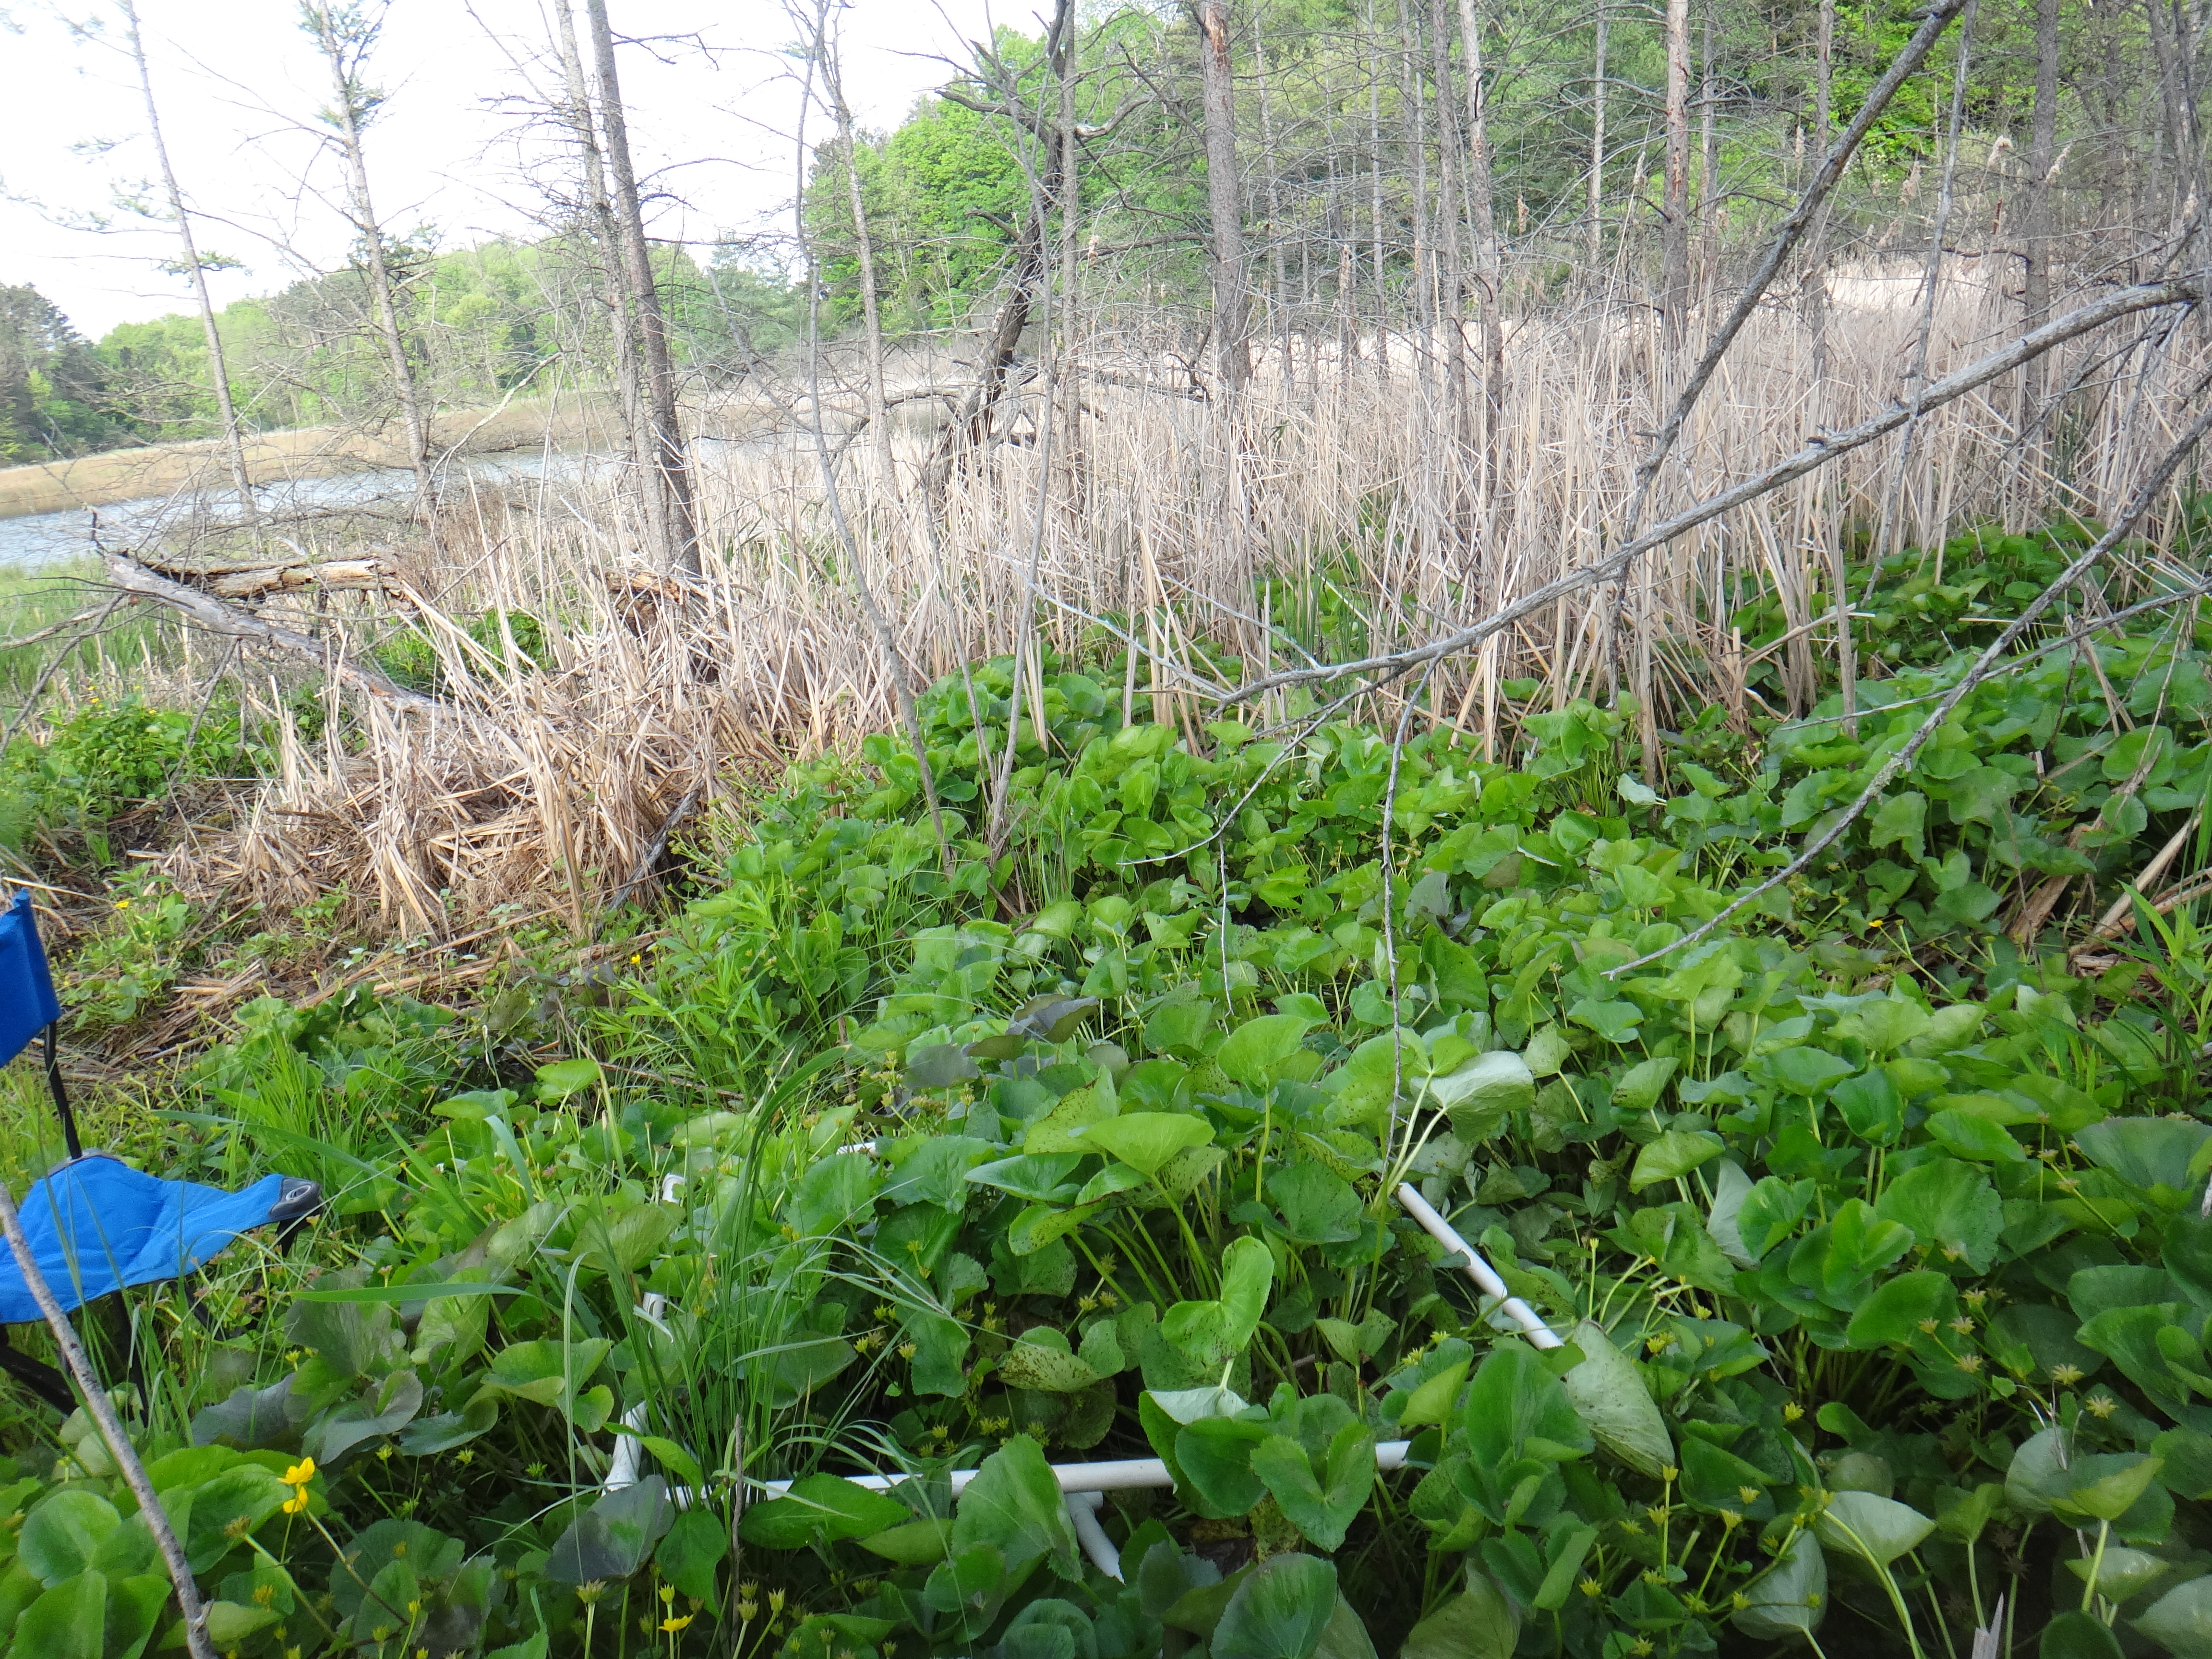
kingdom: Plantae
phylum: Tracheophyta
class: Liliopsida
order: Poales
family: Poaceae
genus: Glyceria
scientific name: Glyceria striata
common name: Fowl manna grass
